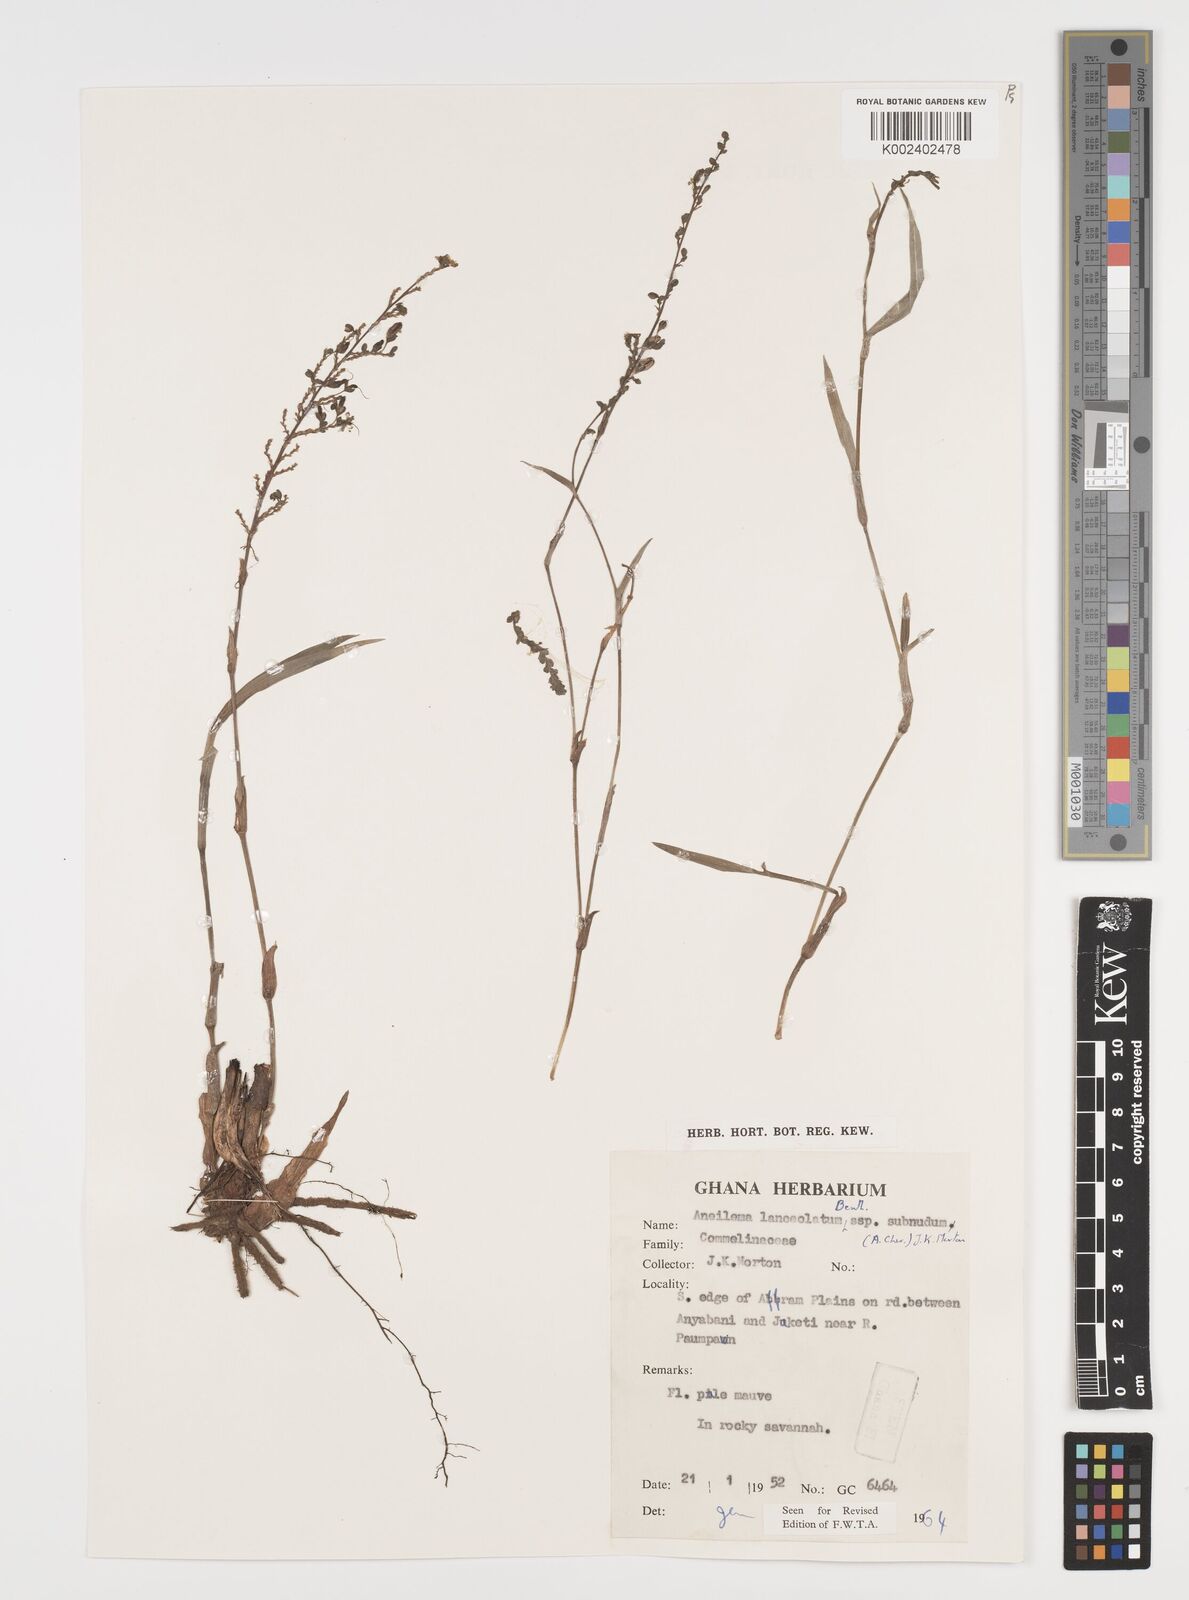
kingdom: Plantae
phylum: Tracheophyta
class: Liliopsida
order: Commelinales
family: Commelinaceae
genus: Aneilema
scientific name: Aneilema lanceolatum
